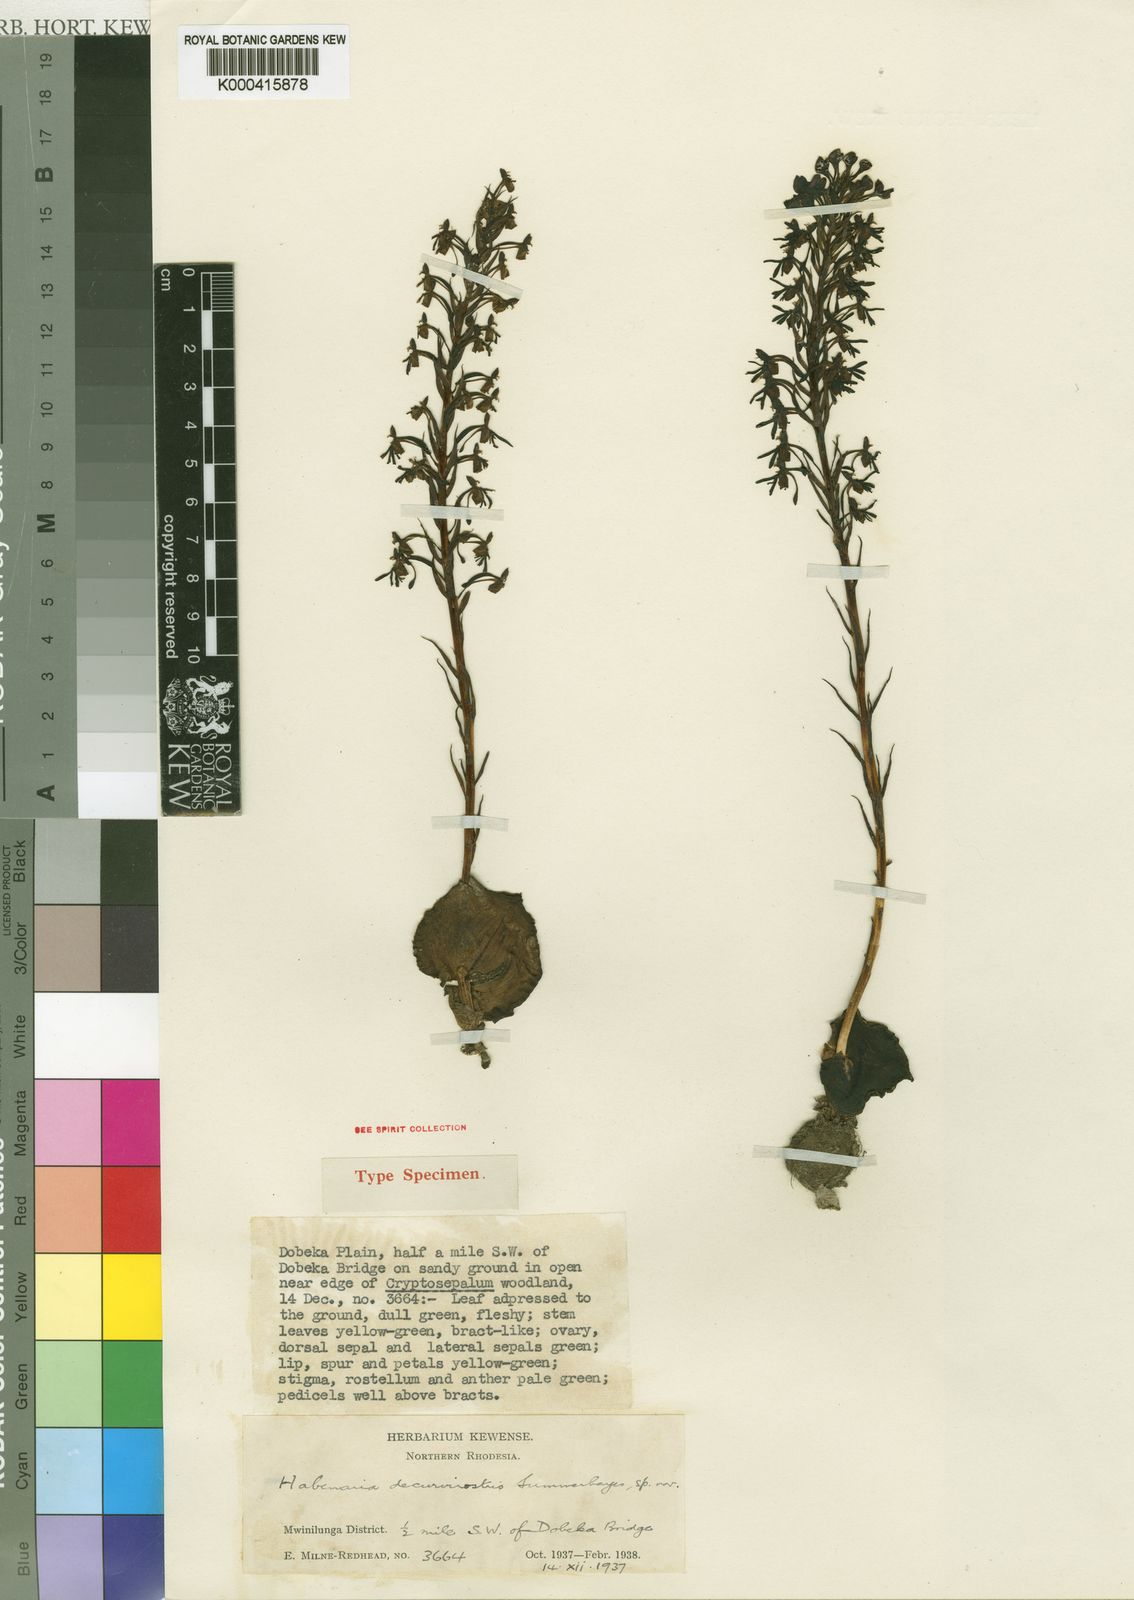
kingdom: Plantae
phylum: Tracheophyta
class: Liliopsida
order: Asparagales
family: Orchidaceae
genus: Habenaria
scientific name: Habenaria decurvirostris
